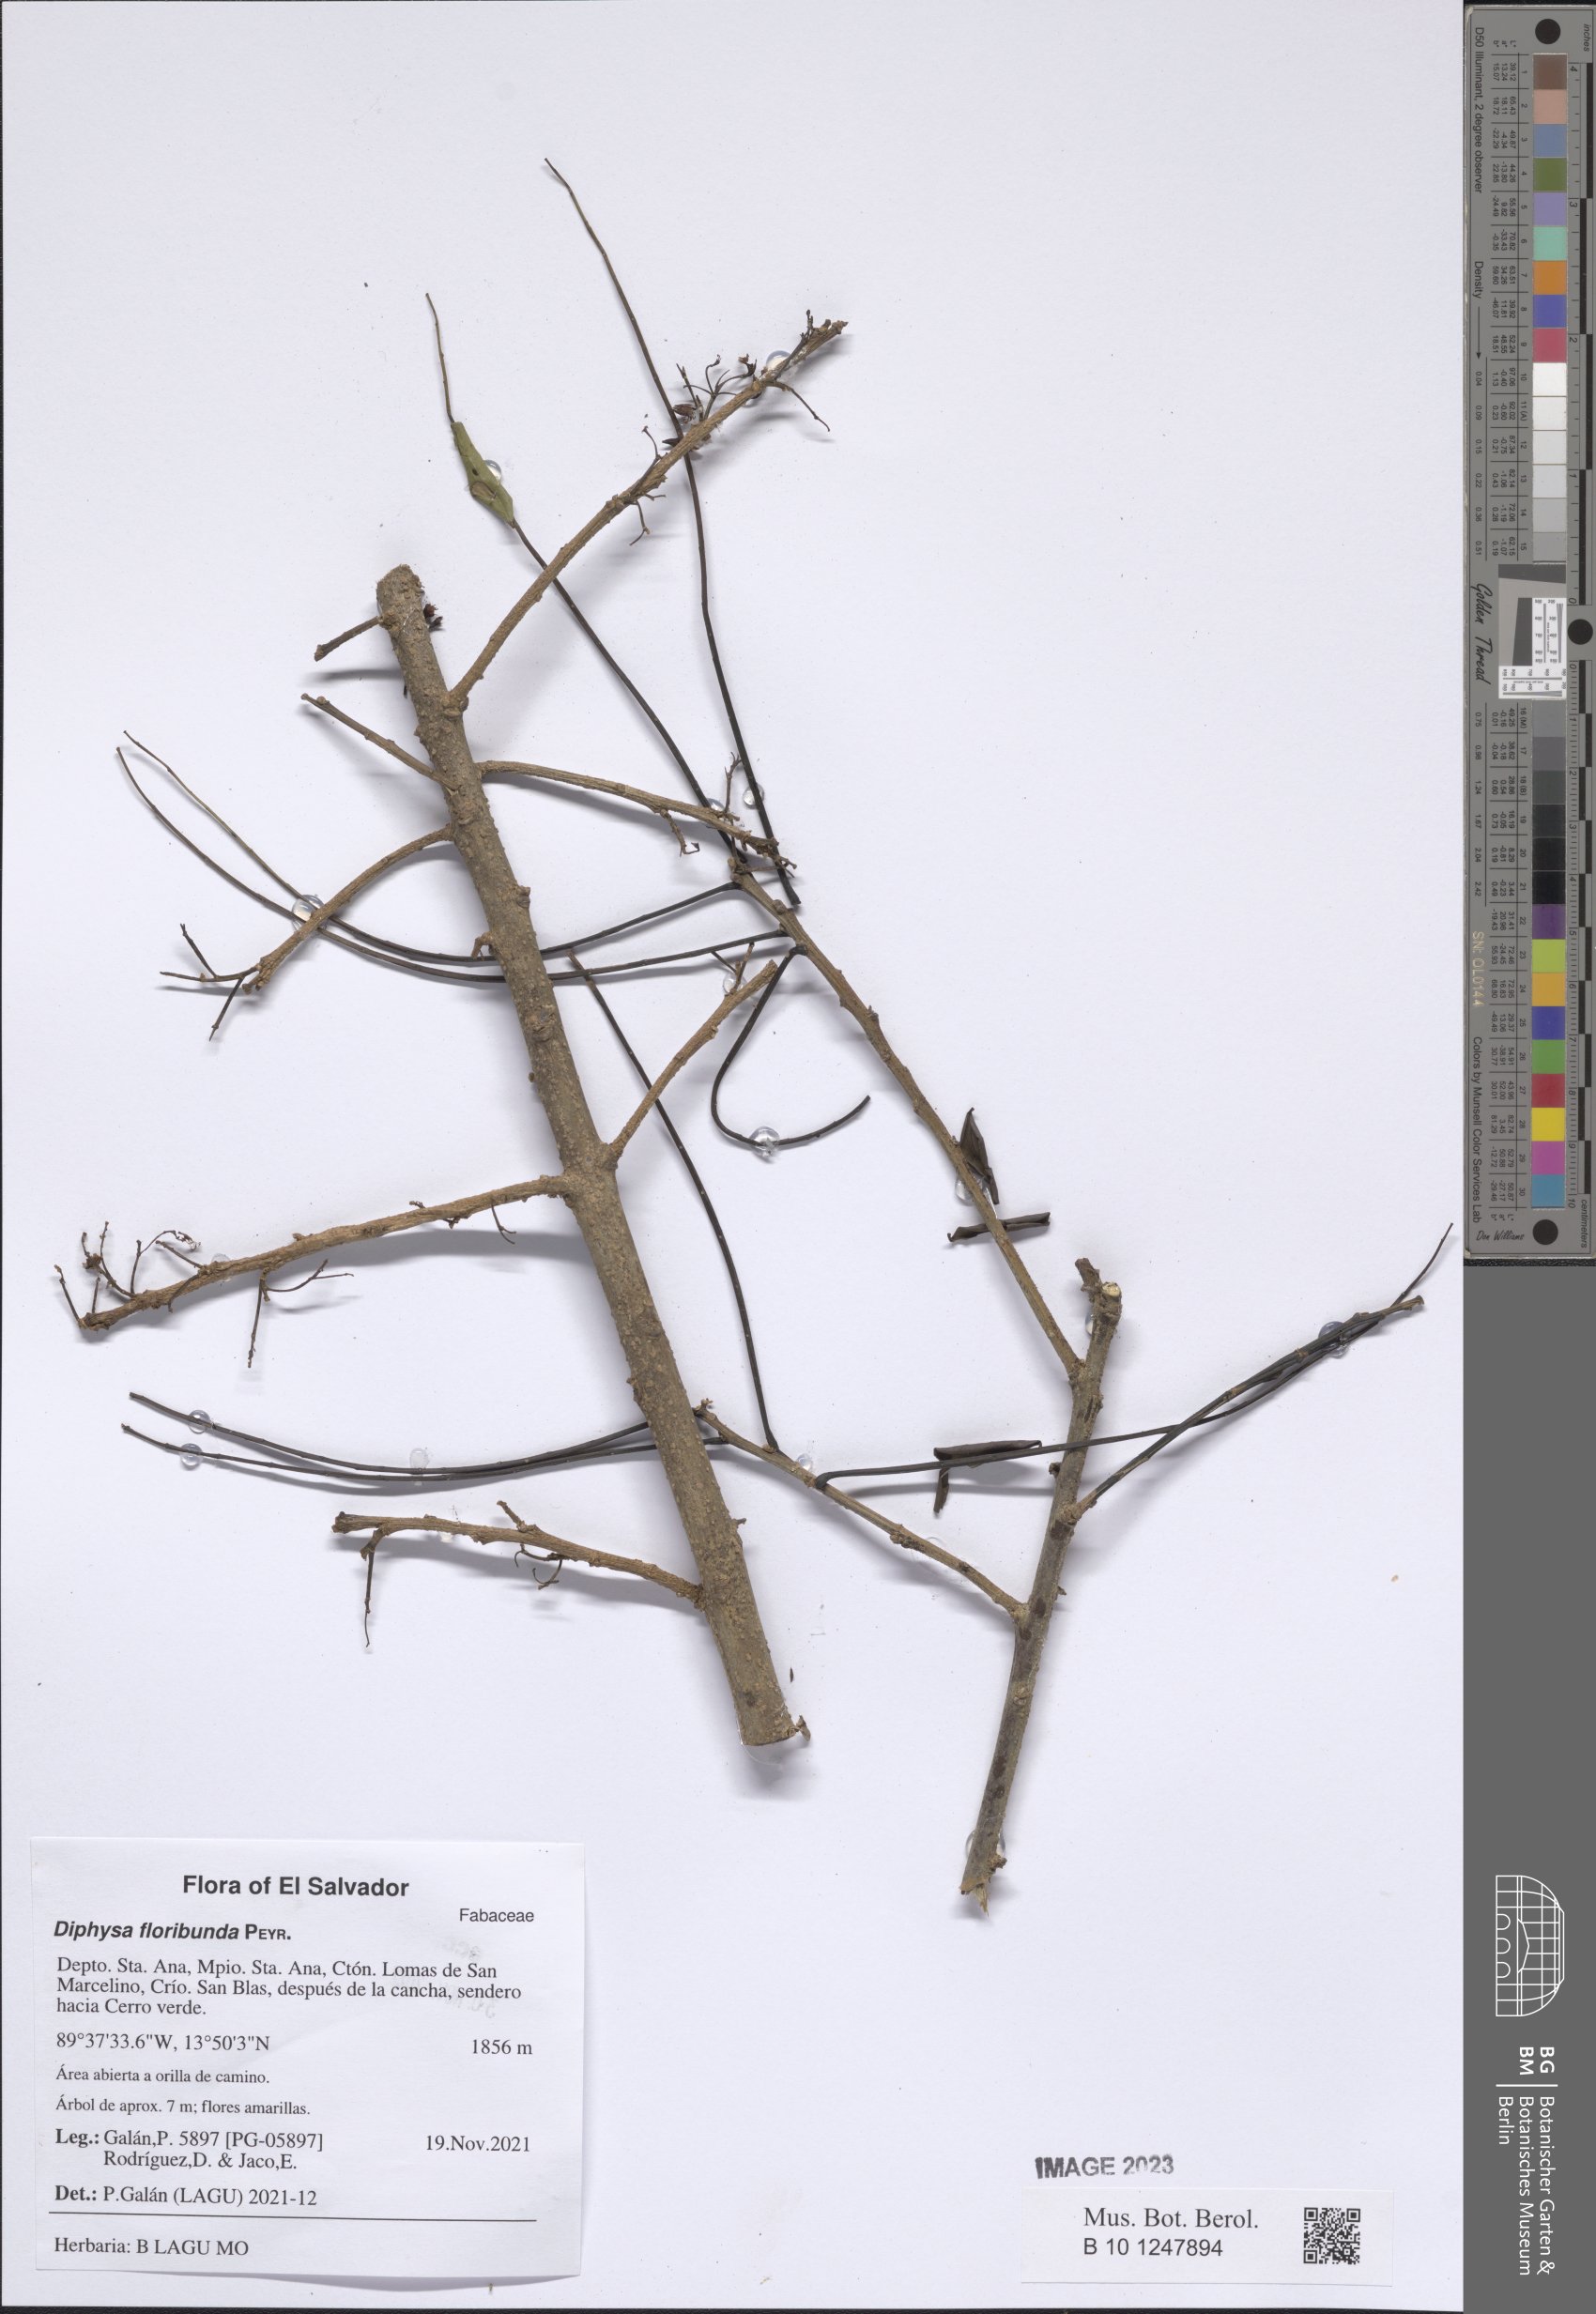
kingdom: Plantae
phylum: Tracheophyta
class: Magnoliopsida
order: Fabales
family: Fabaceae
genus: Diphysa
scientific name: Diphysa floribunda
